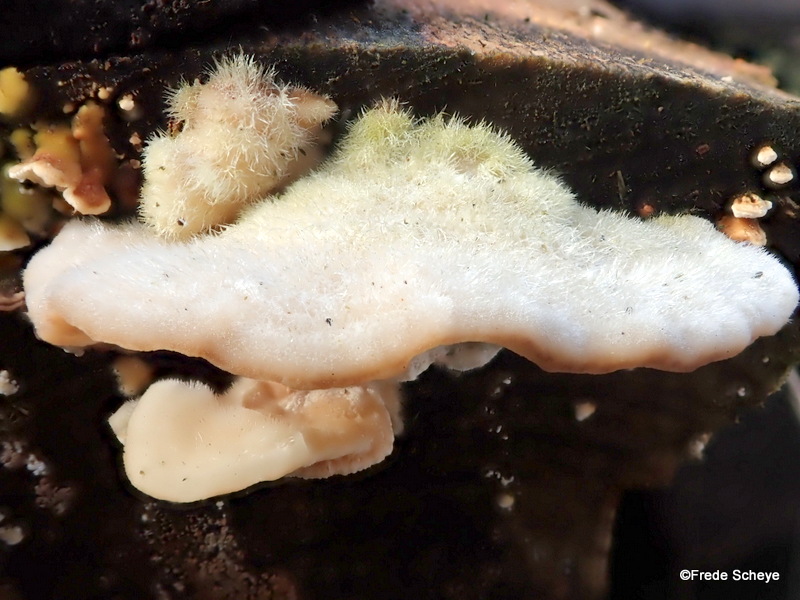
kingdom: Fungi
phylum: Basidiomycota
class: Agaricomycetes
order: Polyporales
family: Polyporaceae
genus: Trametes
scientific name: Trametes hirsuta
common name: håret læderporesvamp
